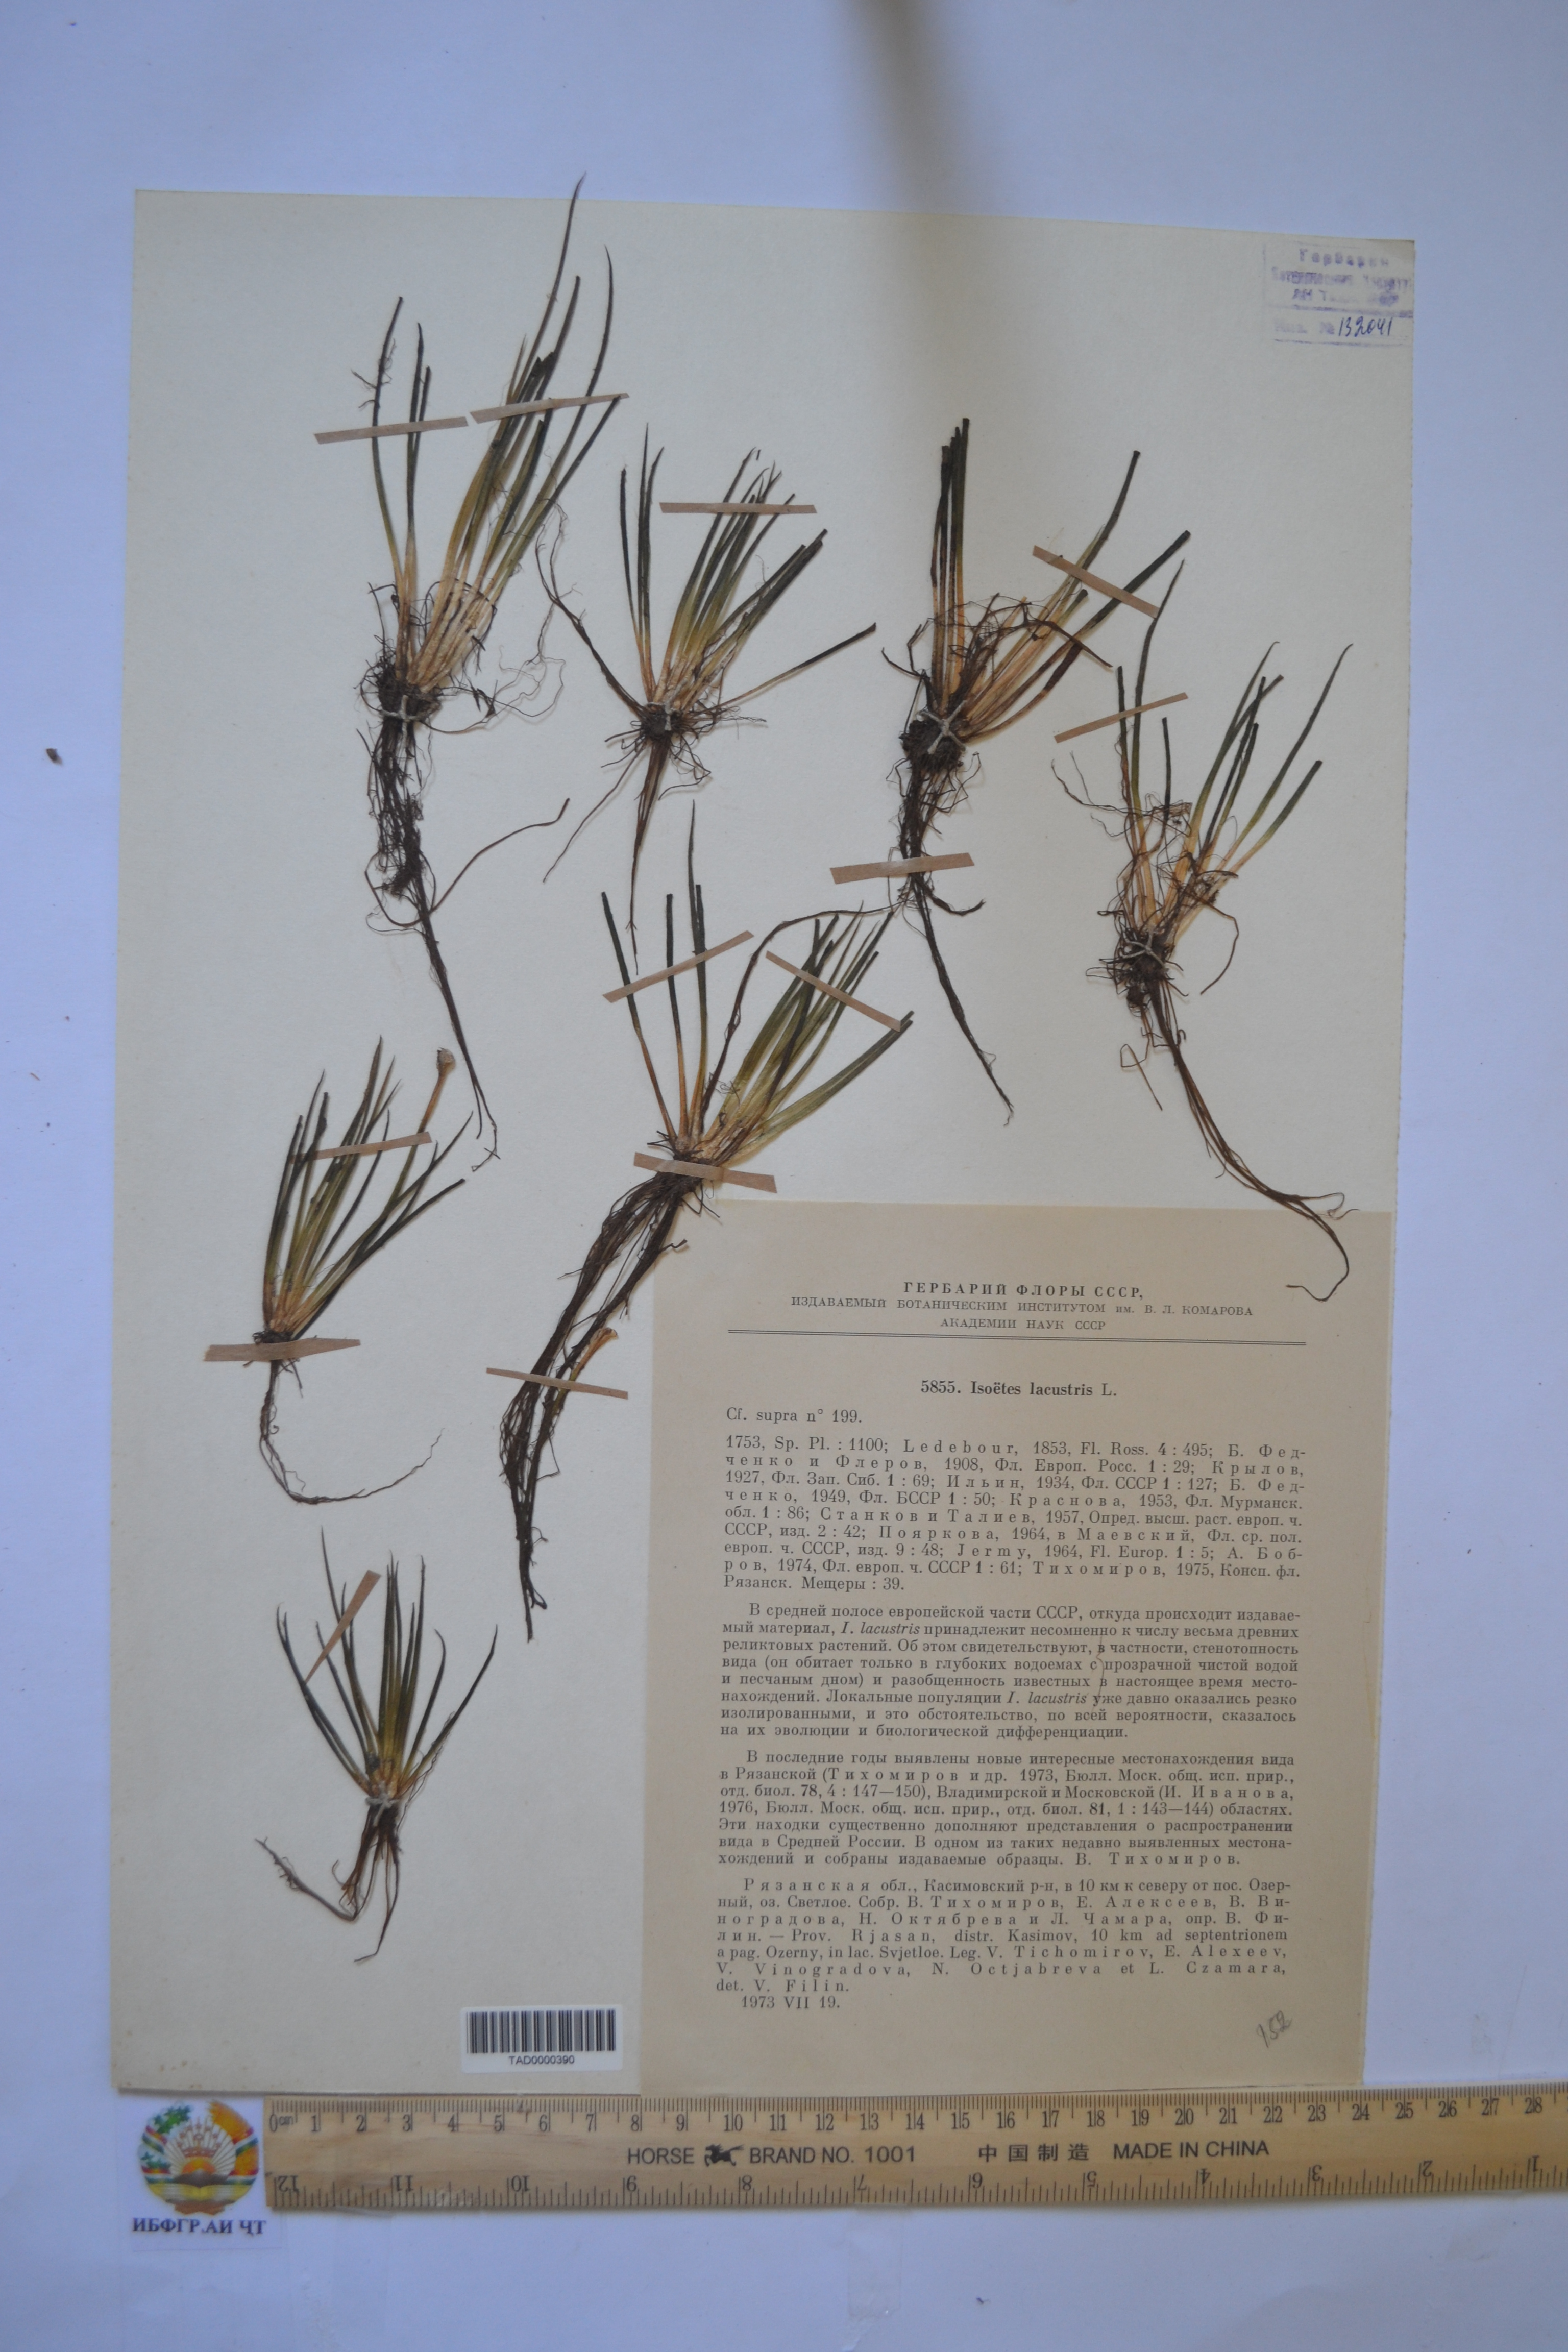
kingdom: Plantae
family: Pteridophyta
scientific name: Pteridophyta
